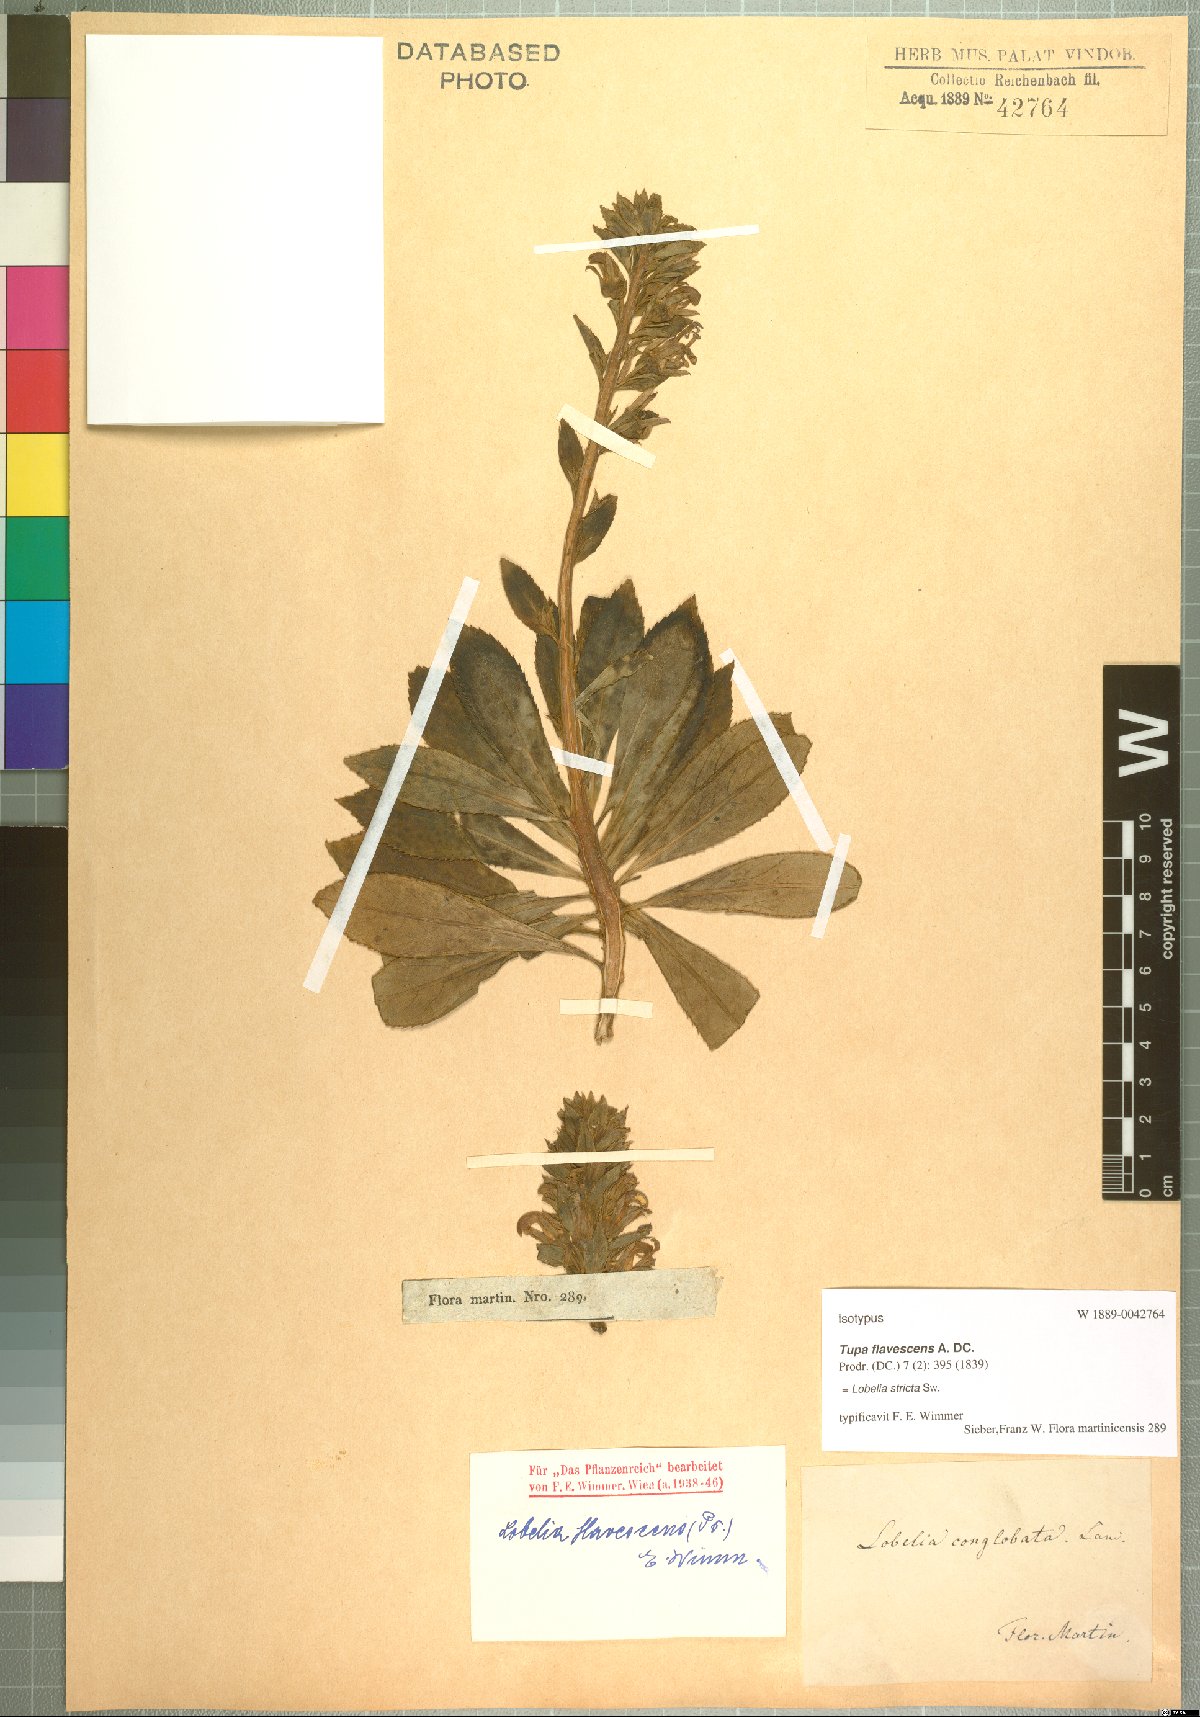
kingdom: Plantae
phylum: Tracheophyta
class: Magnoliopsida
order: Asterales
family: Campanulaceae
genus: Lobelia
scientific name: Lobelia stricta
